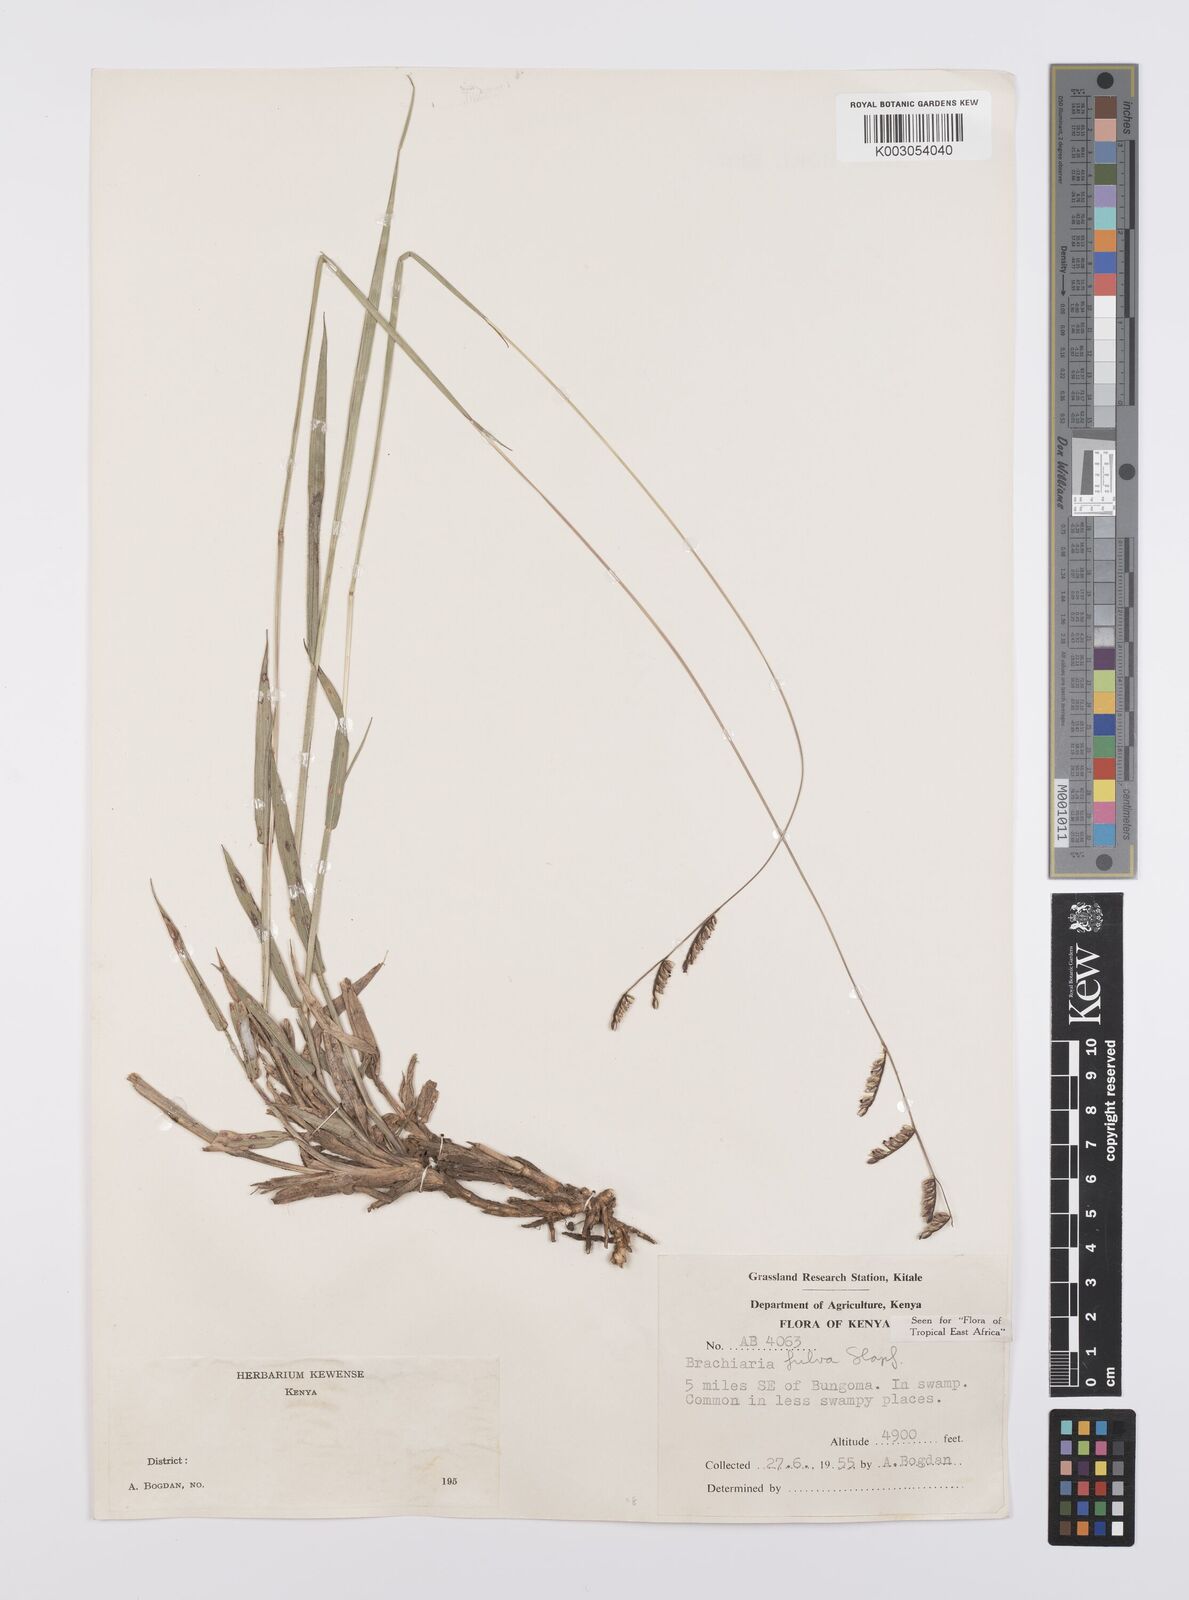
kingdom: Plantae
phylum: Tracheophyta
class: Liliopsida
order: Poales
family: Poaceae
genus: Urochloa
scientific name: Urochloa jubata
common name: Buffalograss
